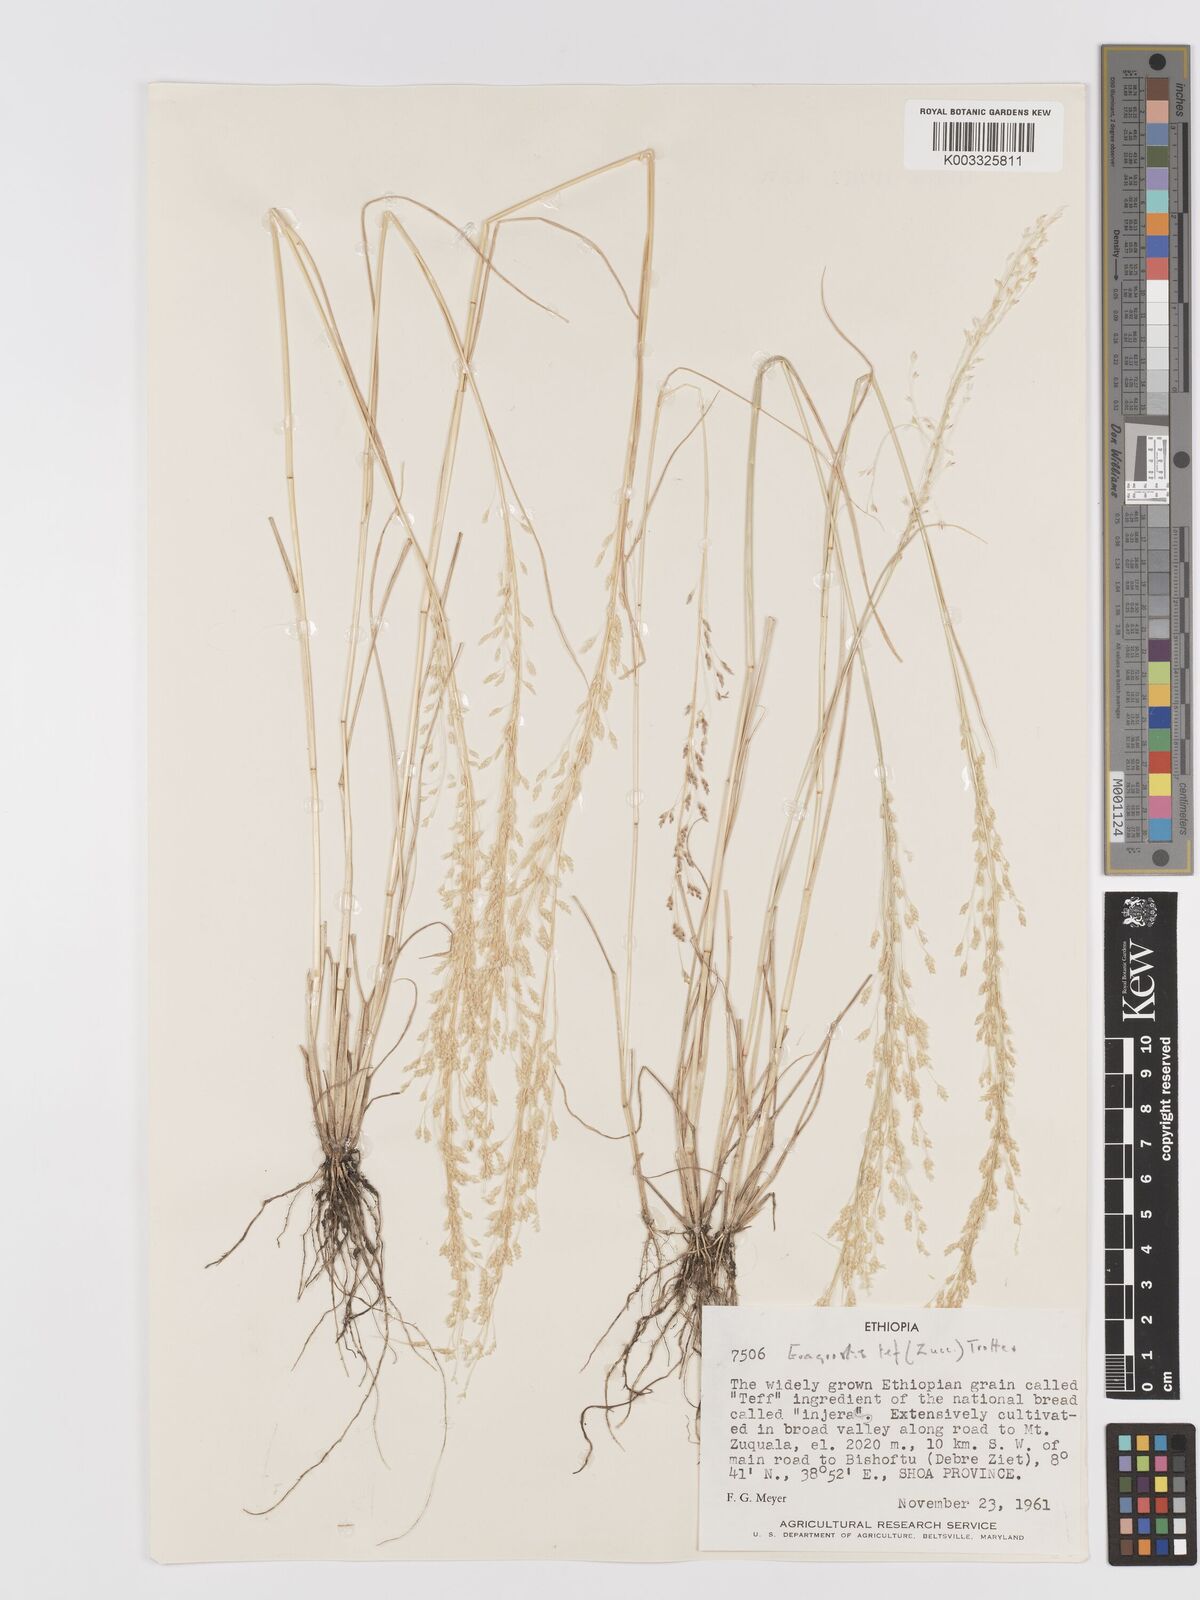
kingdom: Plantae
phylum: Tracheophyta
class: Liliopsida
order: Poales
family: Poaceae
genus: Eragrostis
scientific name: Eragrostis tef
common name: Teff
